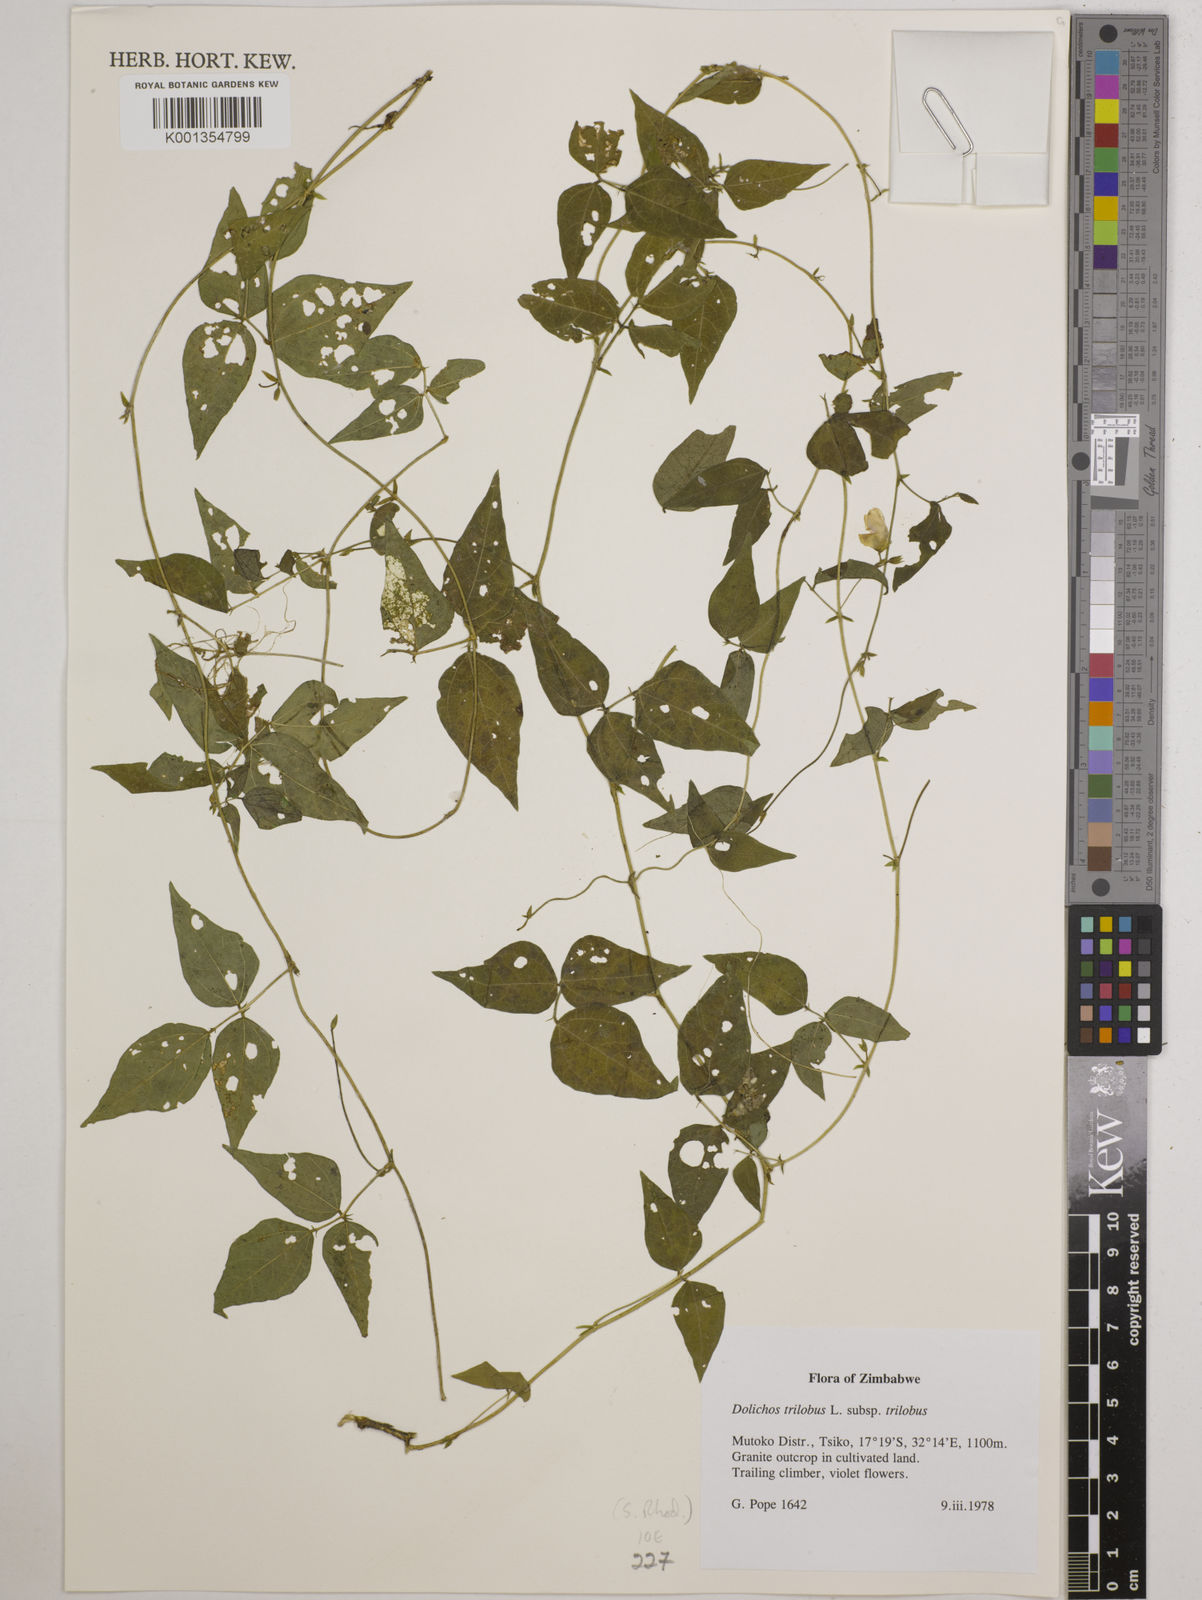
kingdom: Plantae
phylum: Tracheophyta
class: Magnoliopsida
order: Fabales
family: Fabaceae
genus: Dolichos
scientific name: Dolichos
